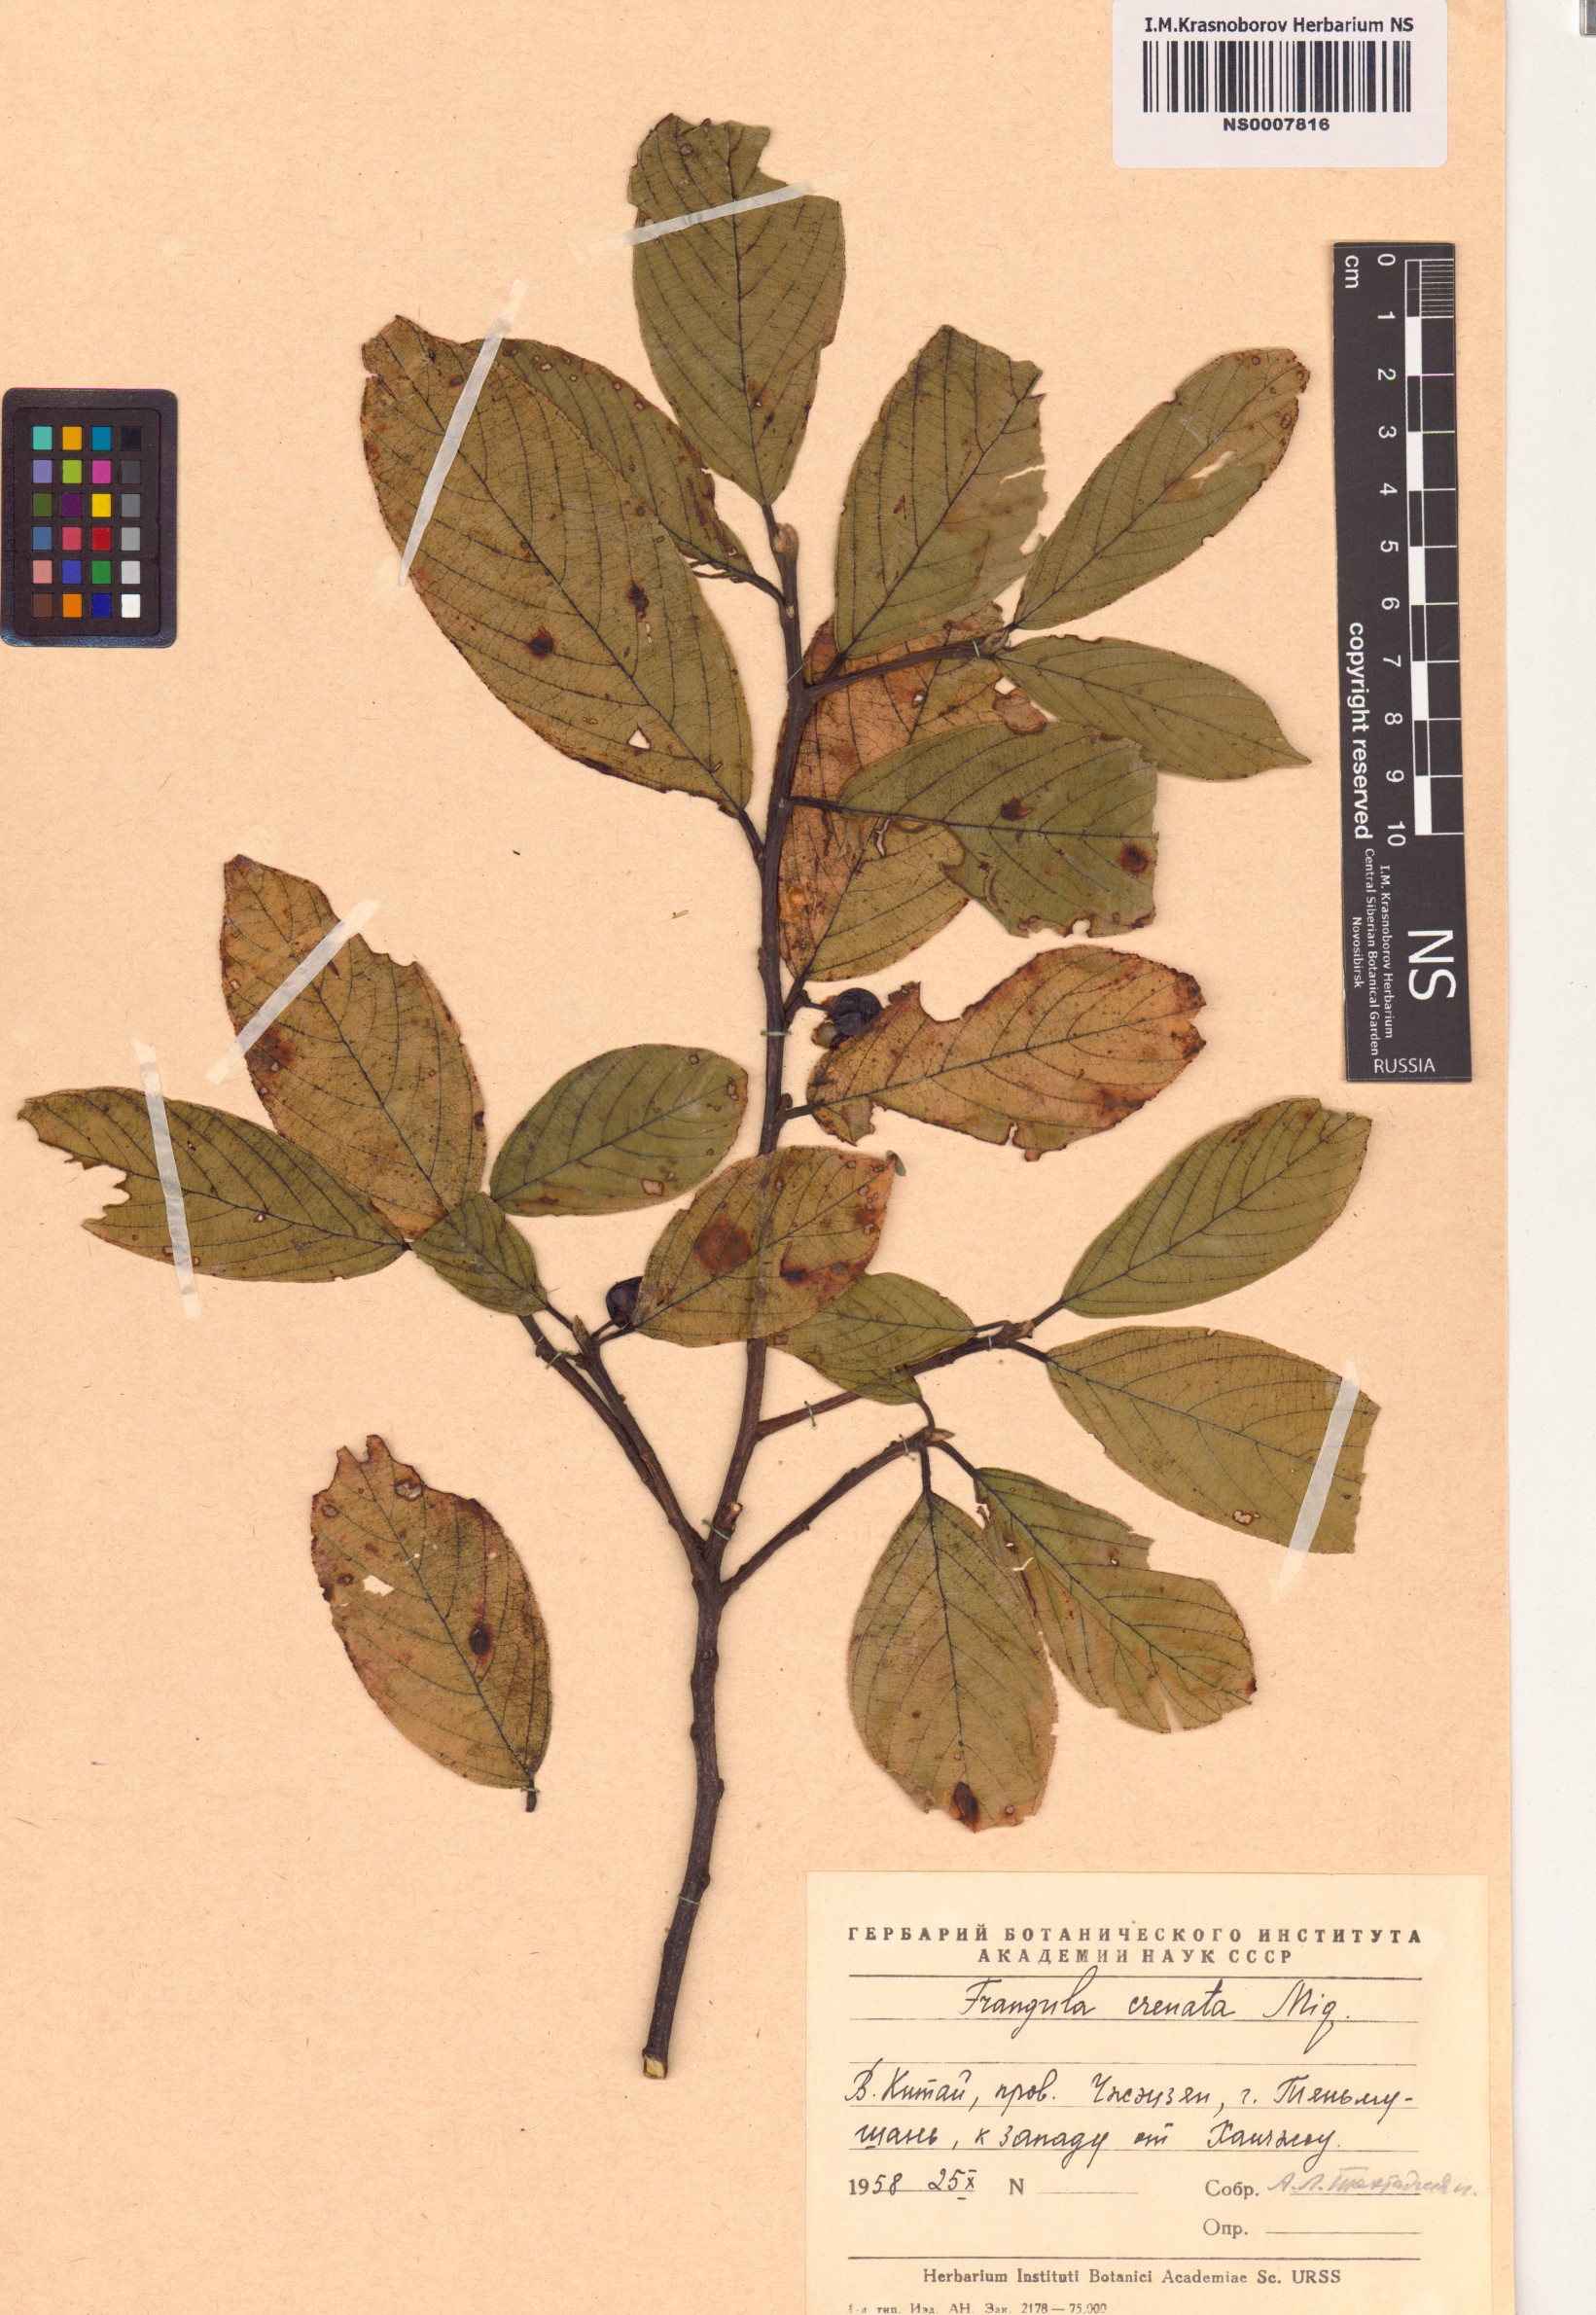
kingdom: Plantae
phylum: Tracheophyta
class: Magnoliopsida
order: Rosales
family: Rhamnaceae
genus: Frangula
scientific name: Frangula crenata
